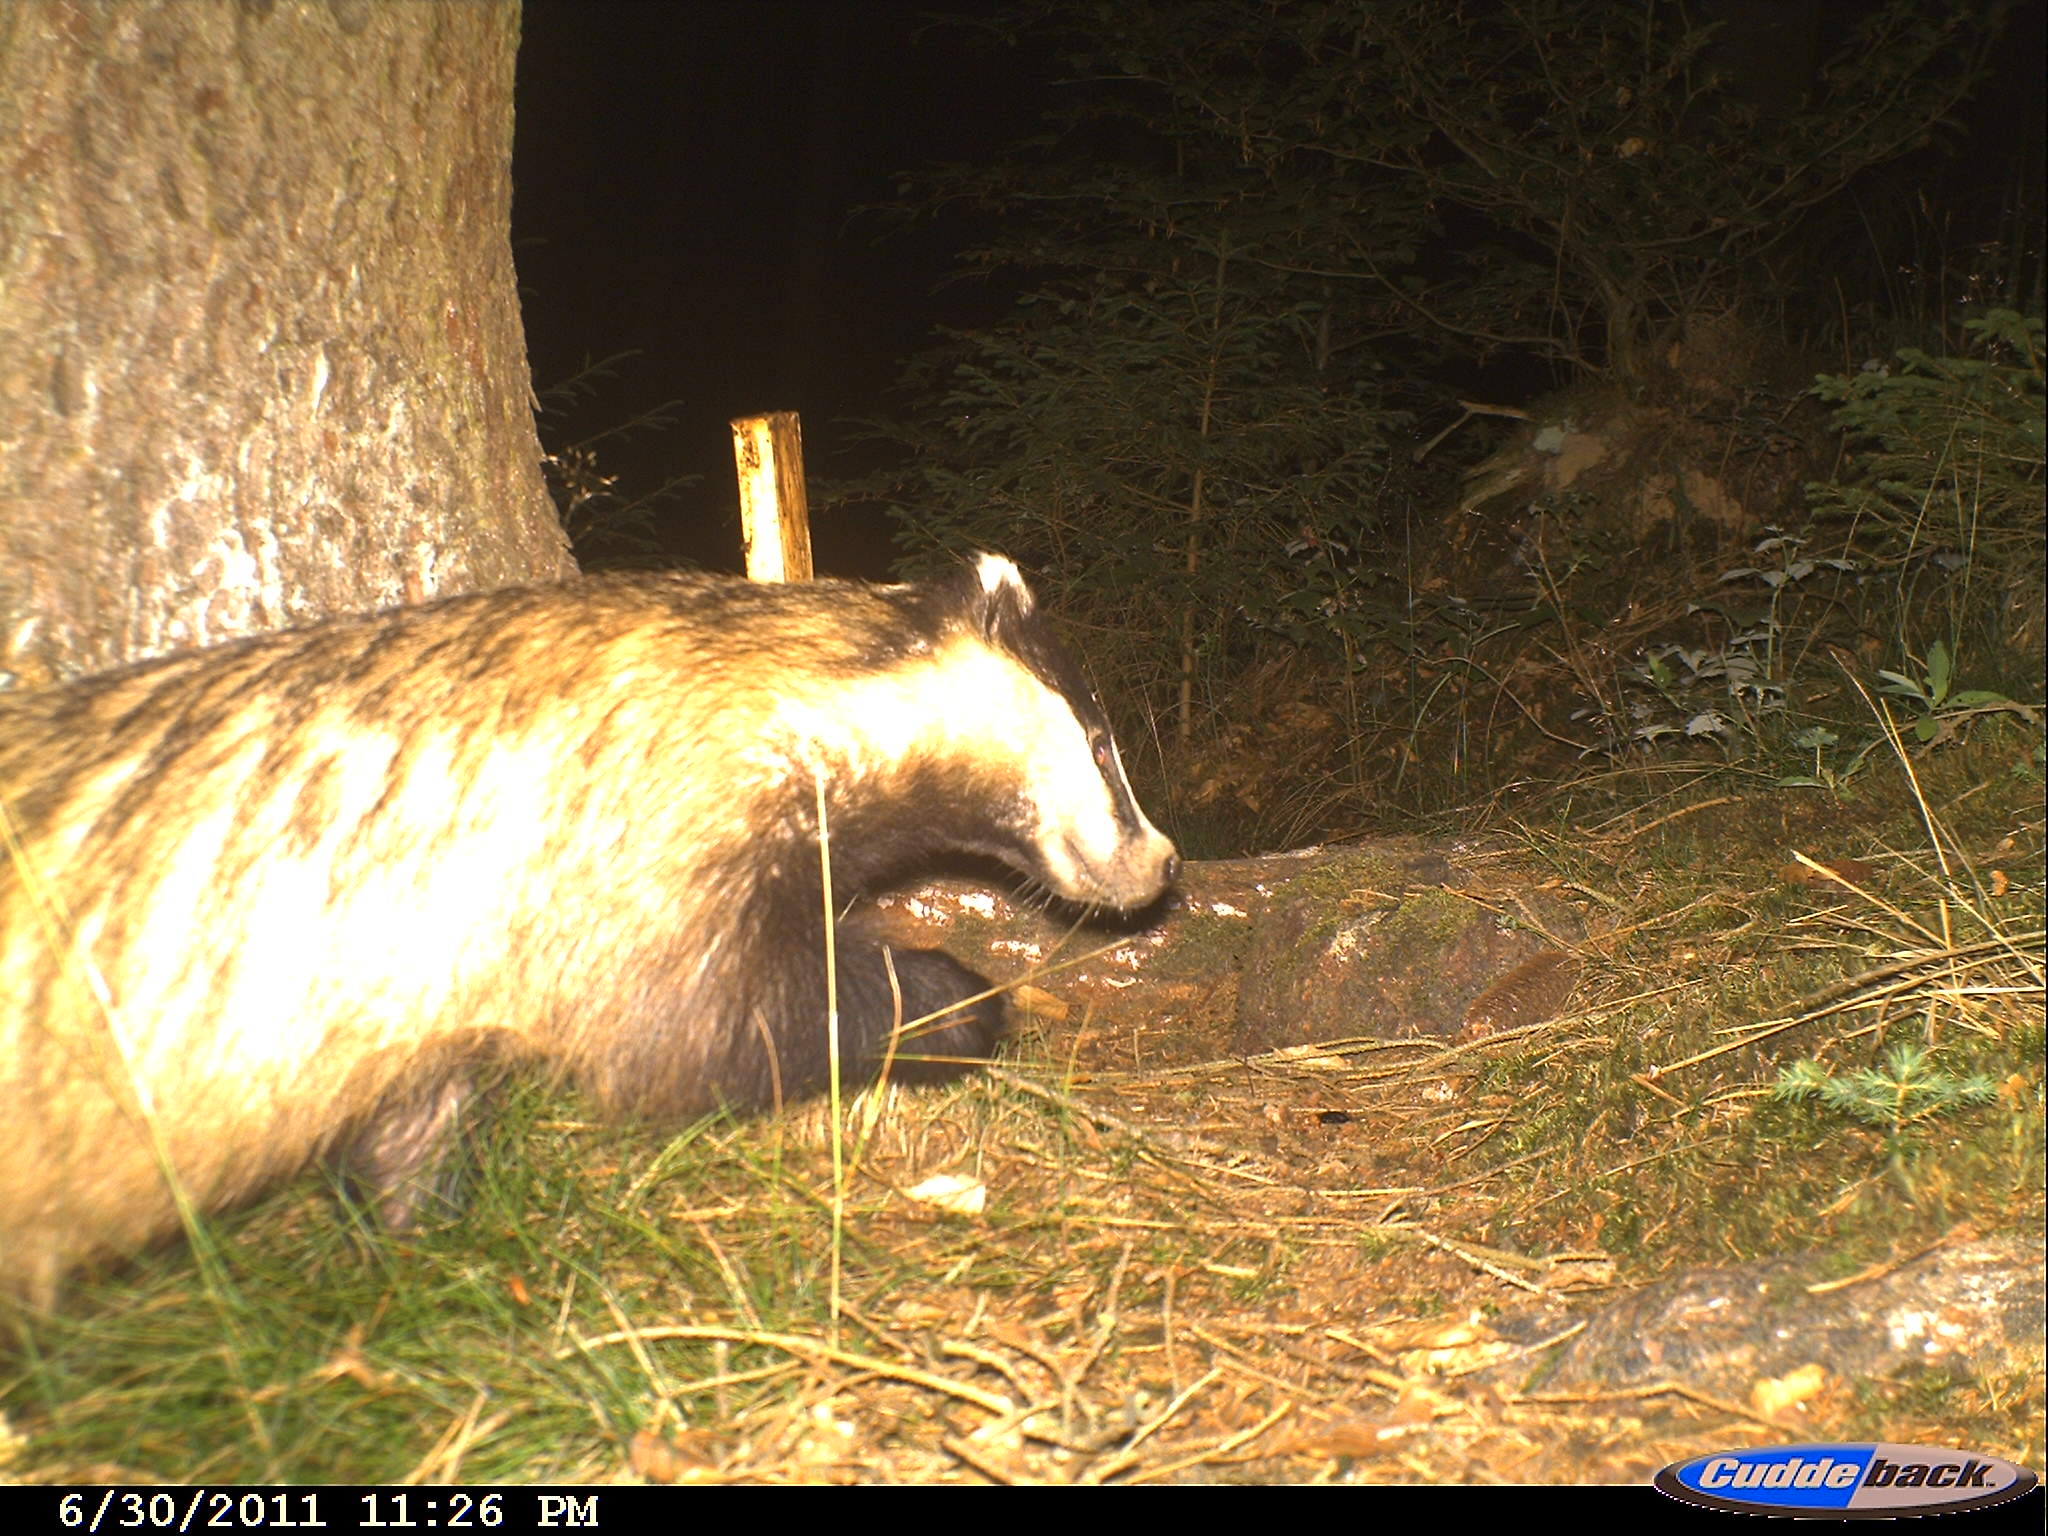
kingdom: Animalia
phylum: Chordata
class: Mammalia
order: Carnivora
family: Mustelidae
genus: Meles
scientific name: Meles meles
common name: Eurasian badger
